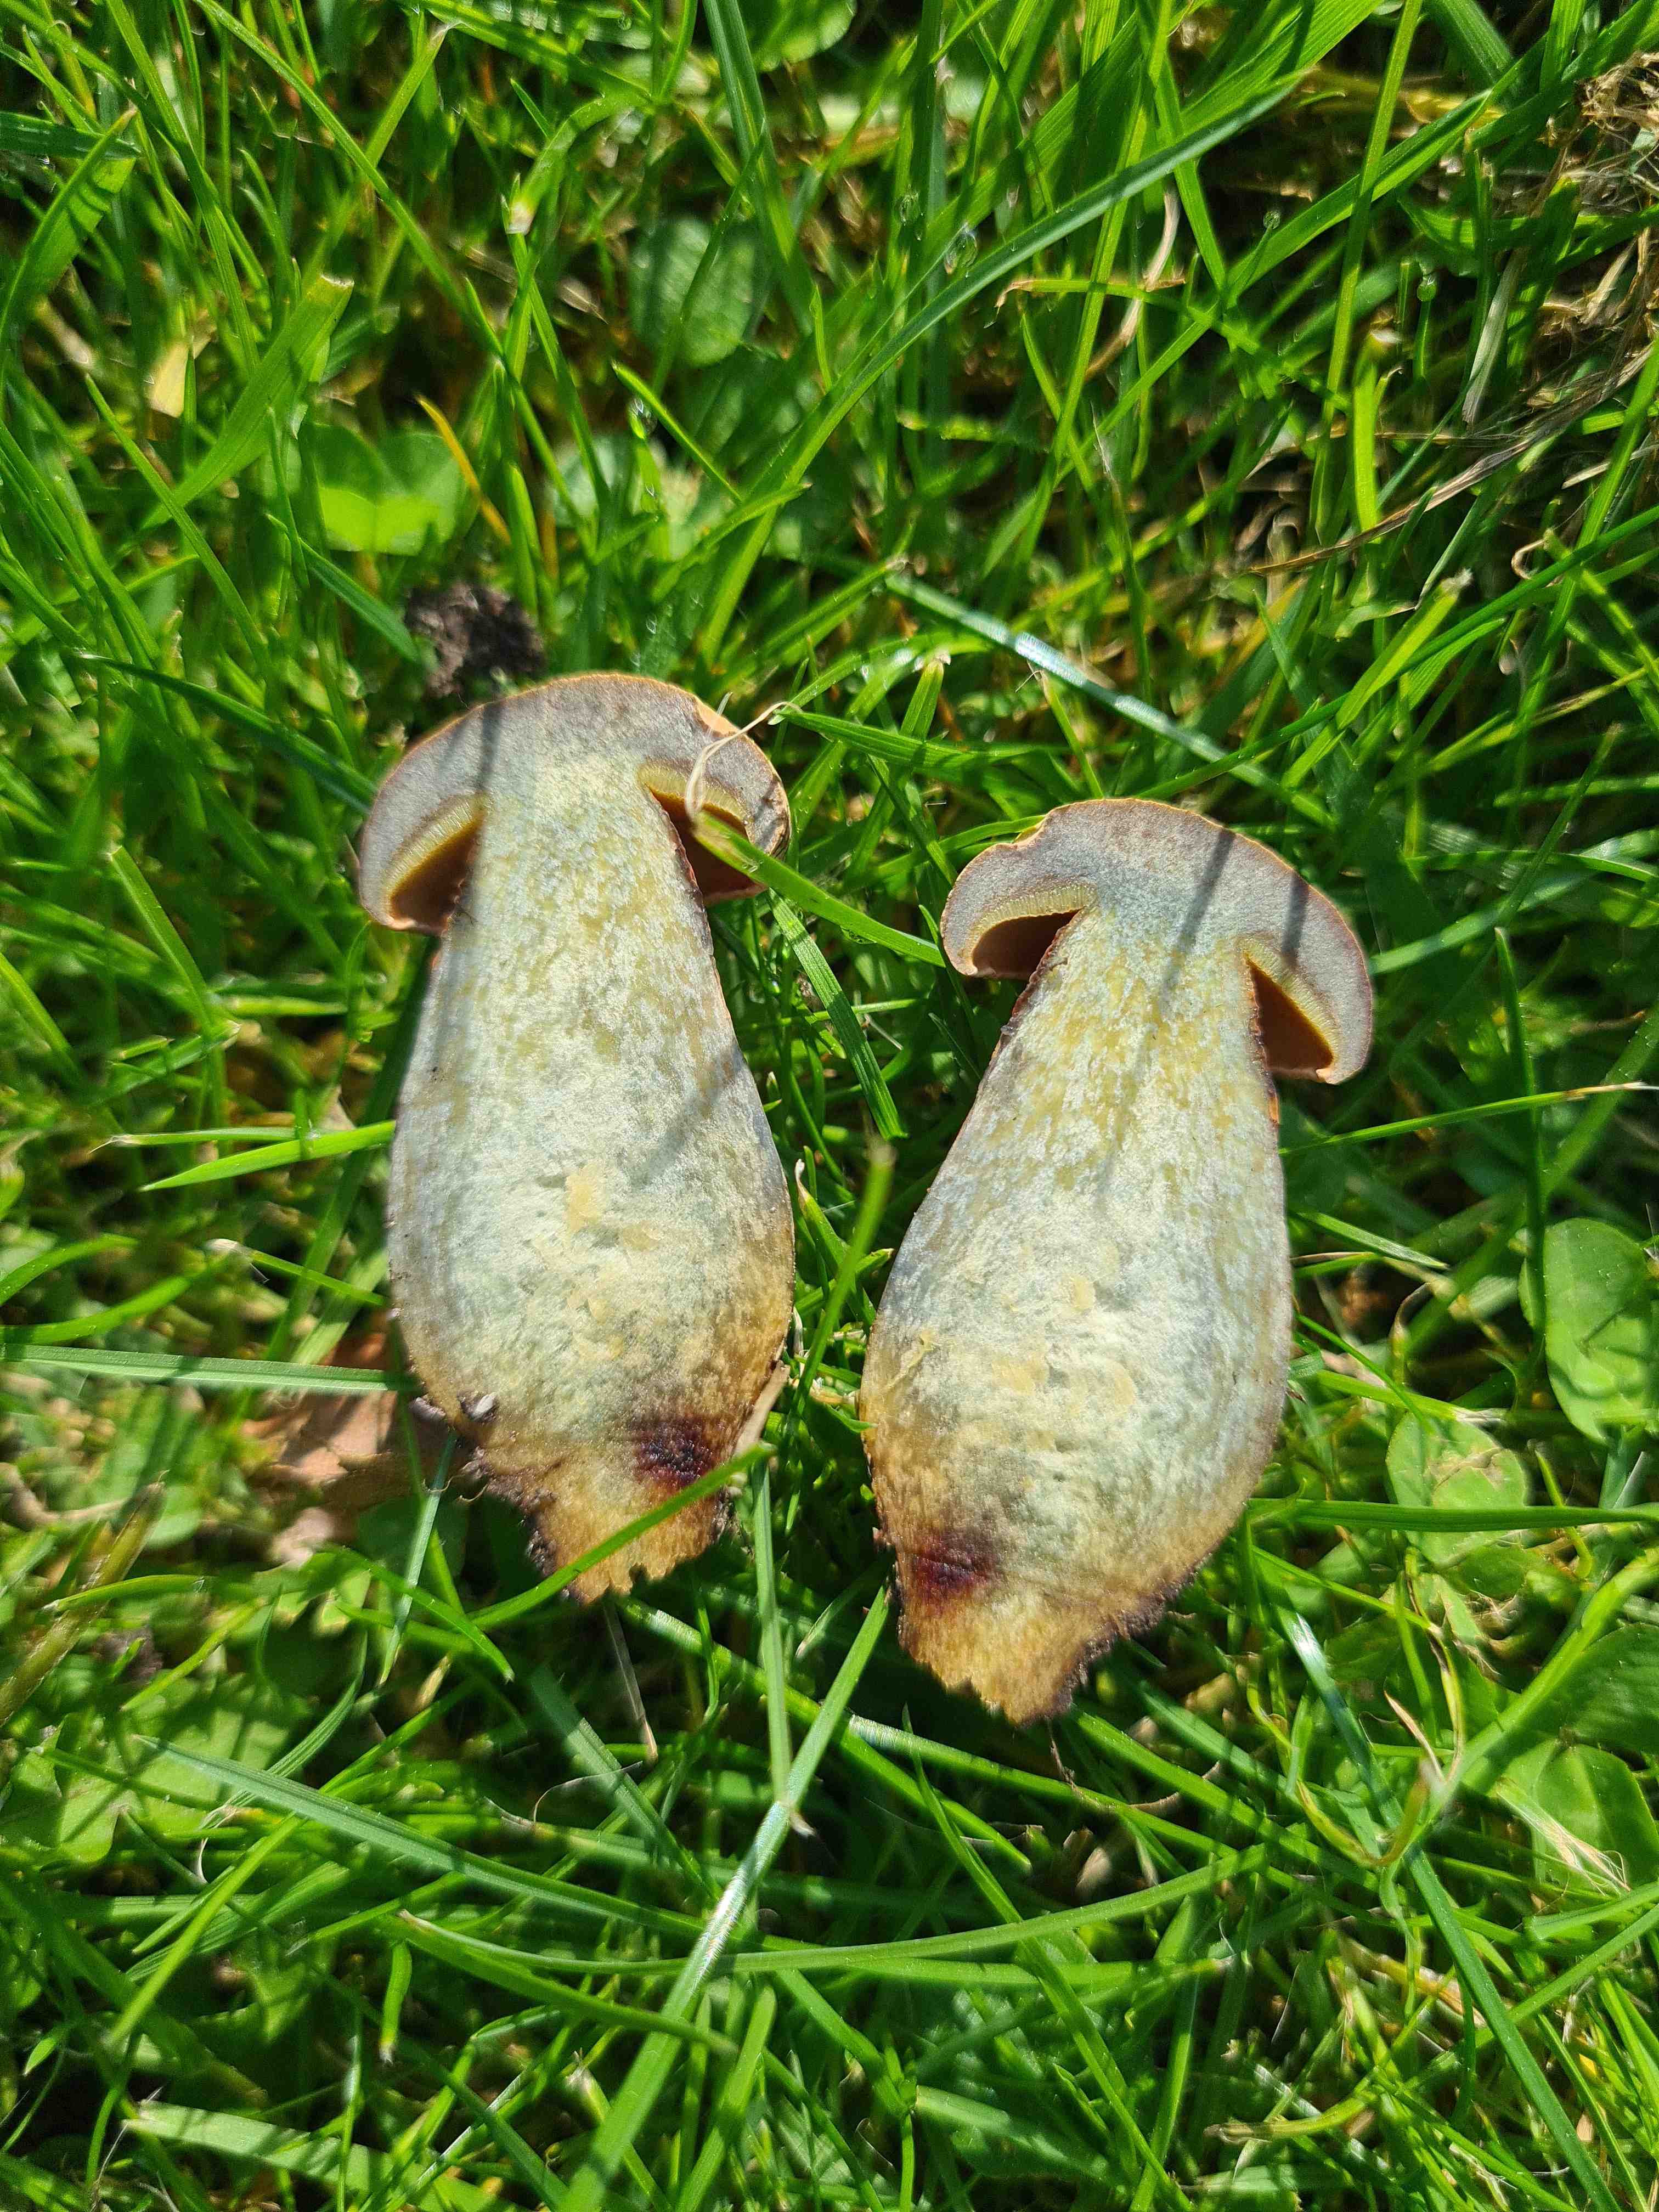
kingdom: Fungi
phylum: Basidiomycota
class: Agaricomycetes
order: Boletales
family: Boletaceae
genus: Suillellus
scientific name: Suillellus luridus
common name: netstokket indigorørhat
